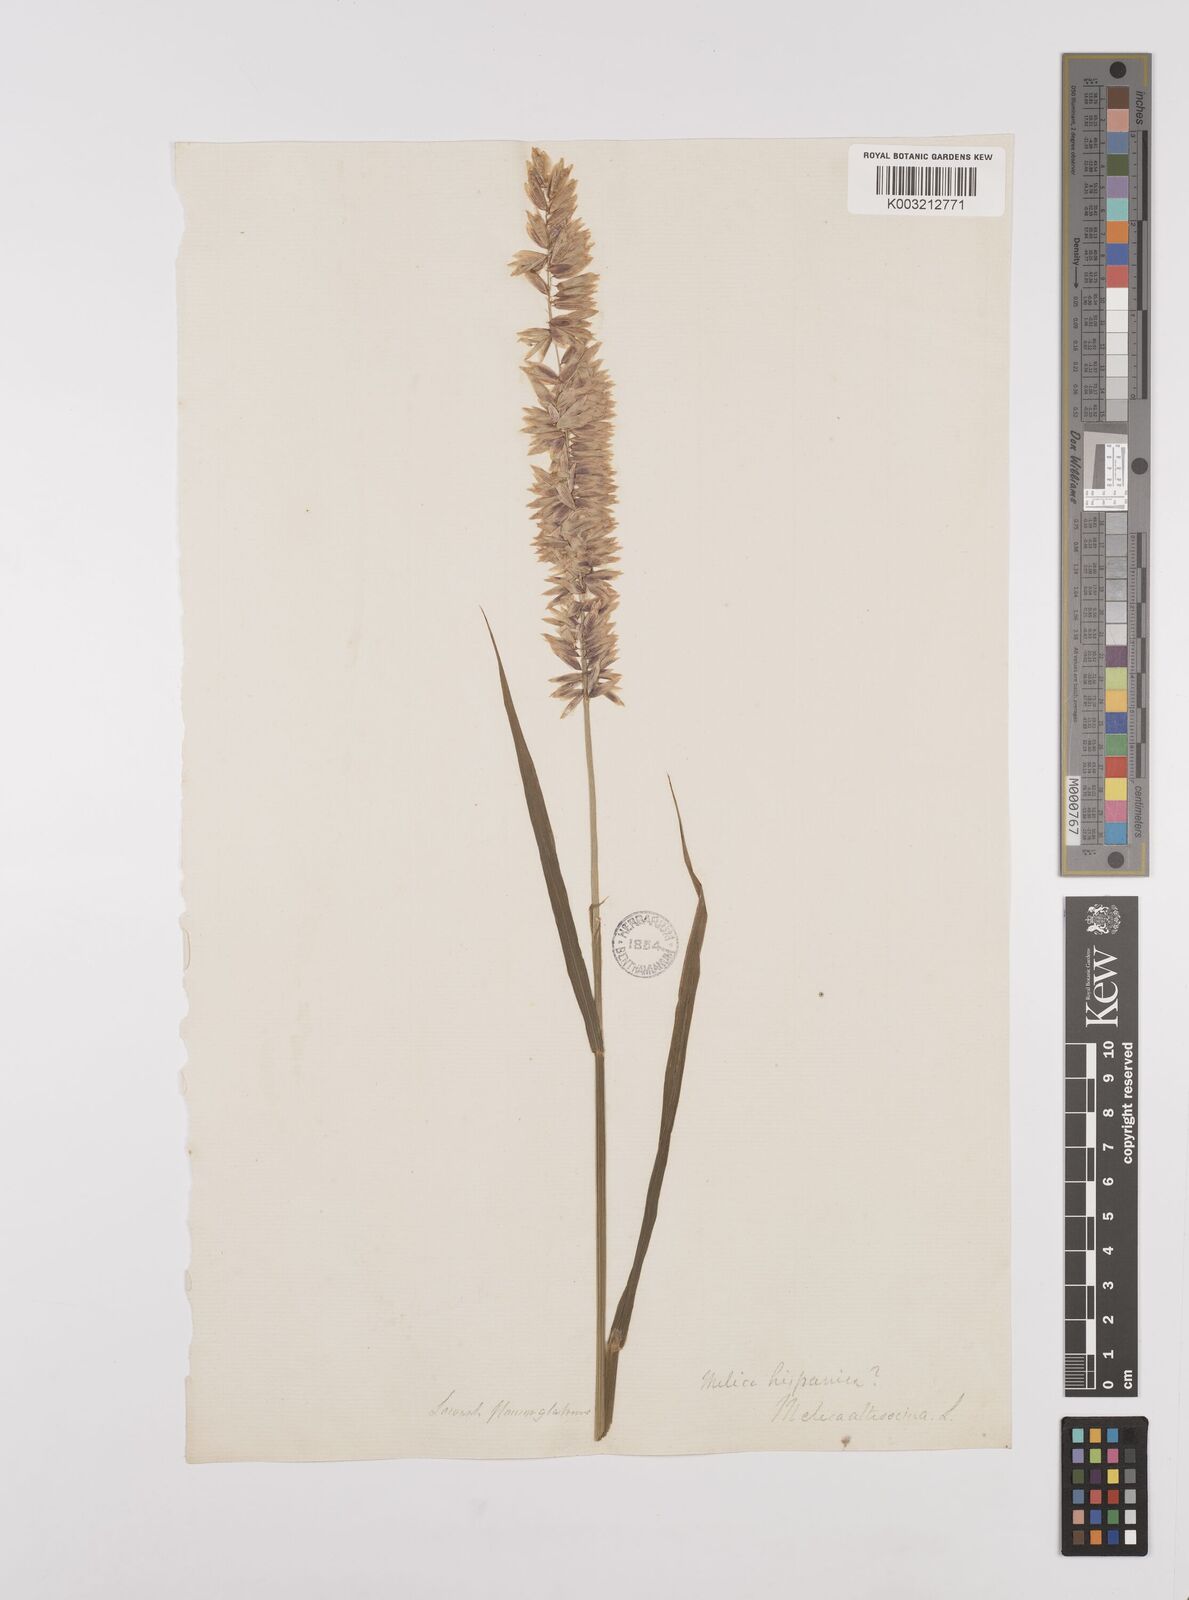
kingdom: Plantae
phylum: Tracheophyta
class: Liliopsida
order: Poales
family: Poaceae
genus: Melica
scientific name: Melica altissima
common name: Siberian melicgrass
